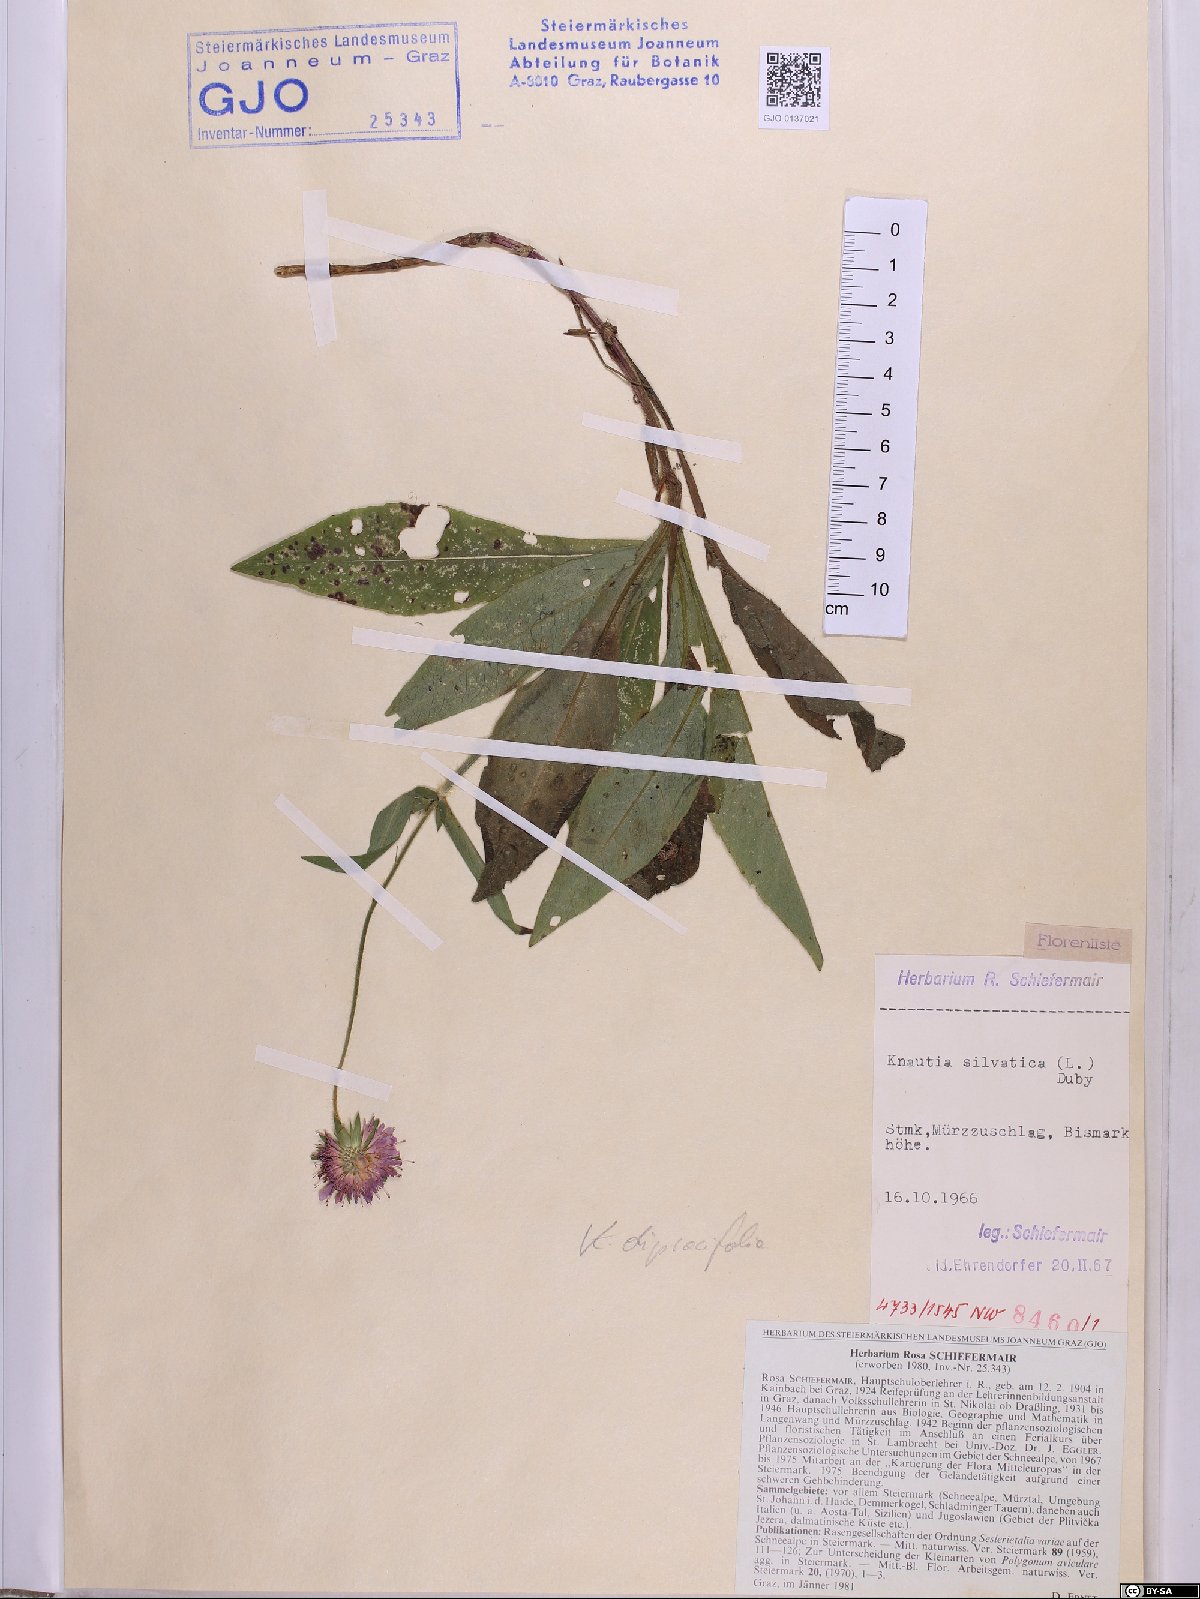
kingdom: Plantae
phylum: Tracheophyta
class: Magnoliopsida
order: Dipsacales
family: Caprifoliaceae
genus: Knautia
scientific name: Knautia drymeia
